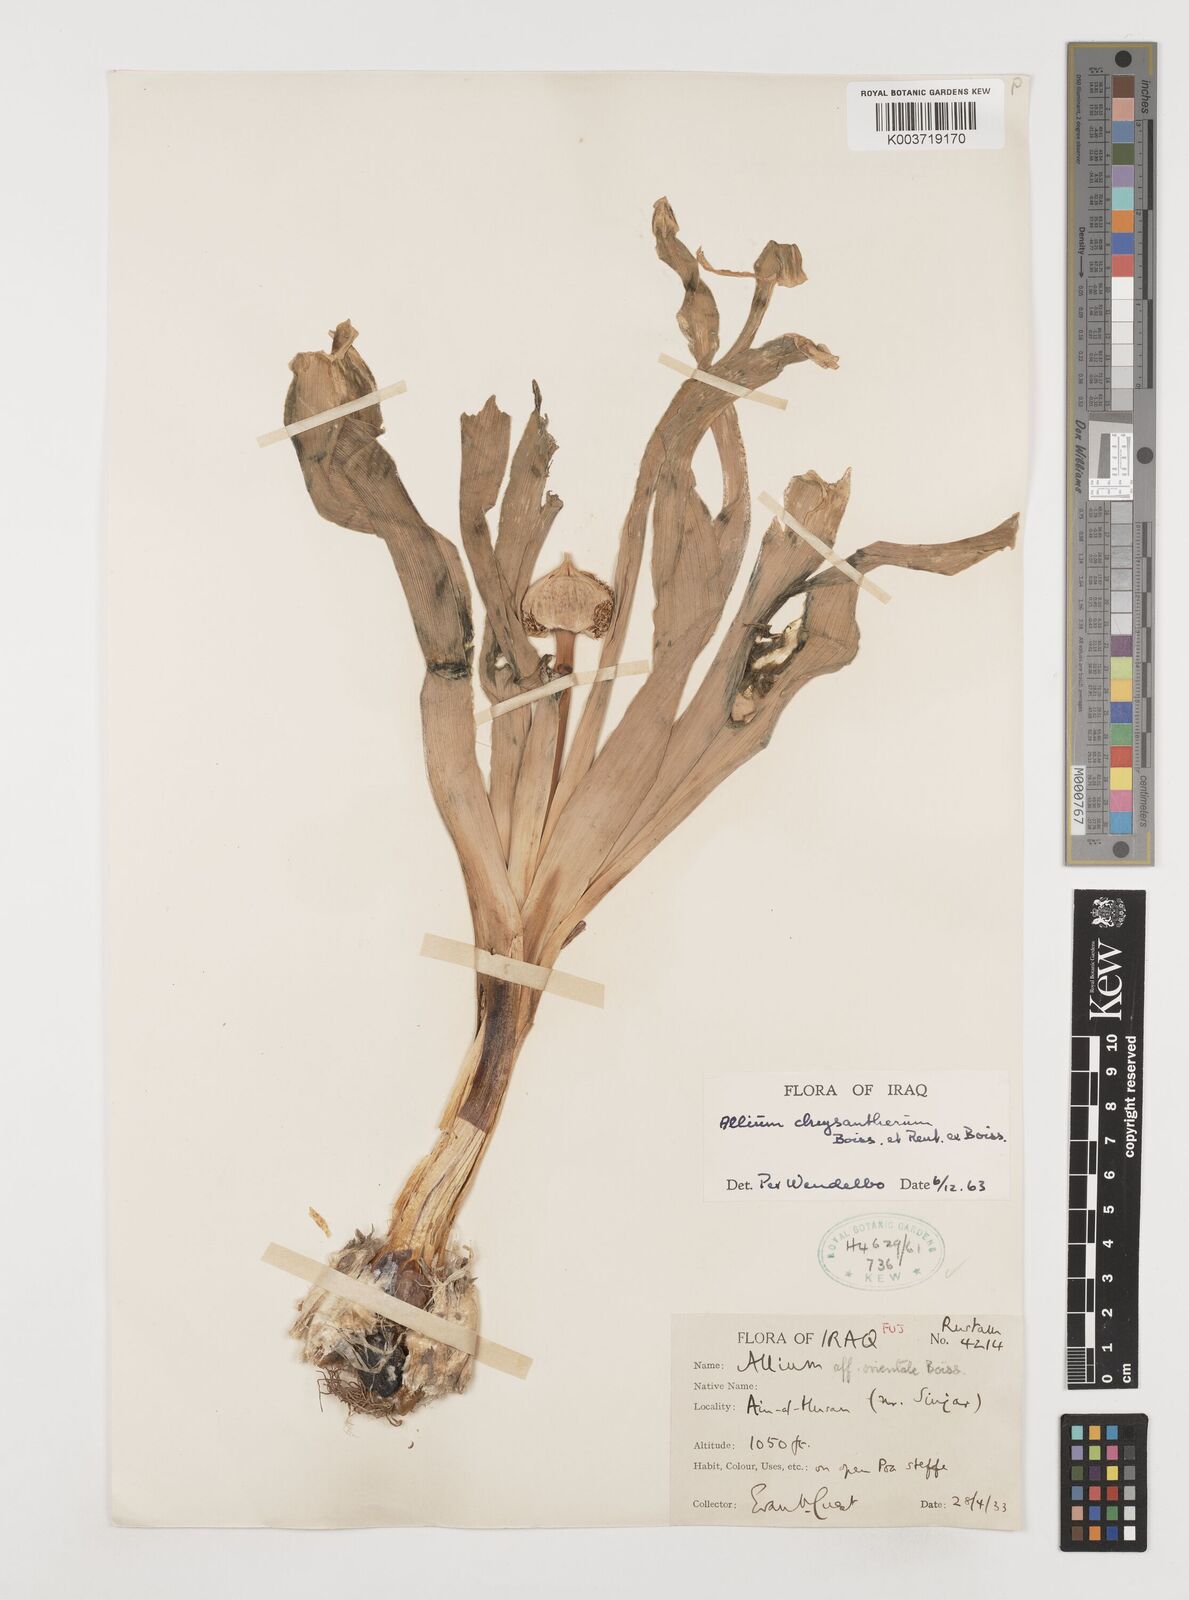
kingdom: Plantae
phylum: Tracheophyta
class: Liliopsida
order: Asparagales
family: Amaryllidaceae
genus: Allium
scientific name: Allium chrysantherum
